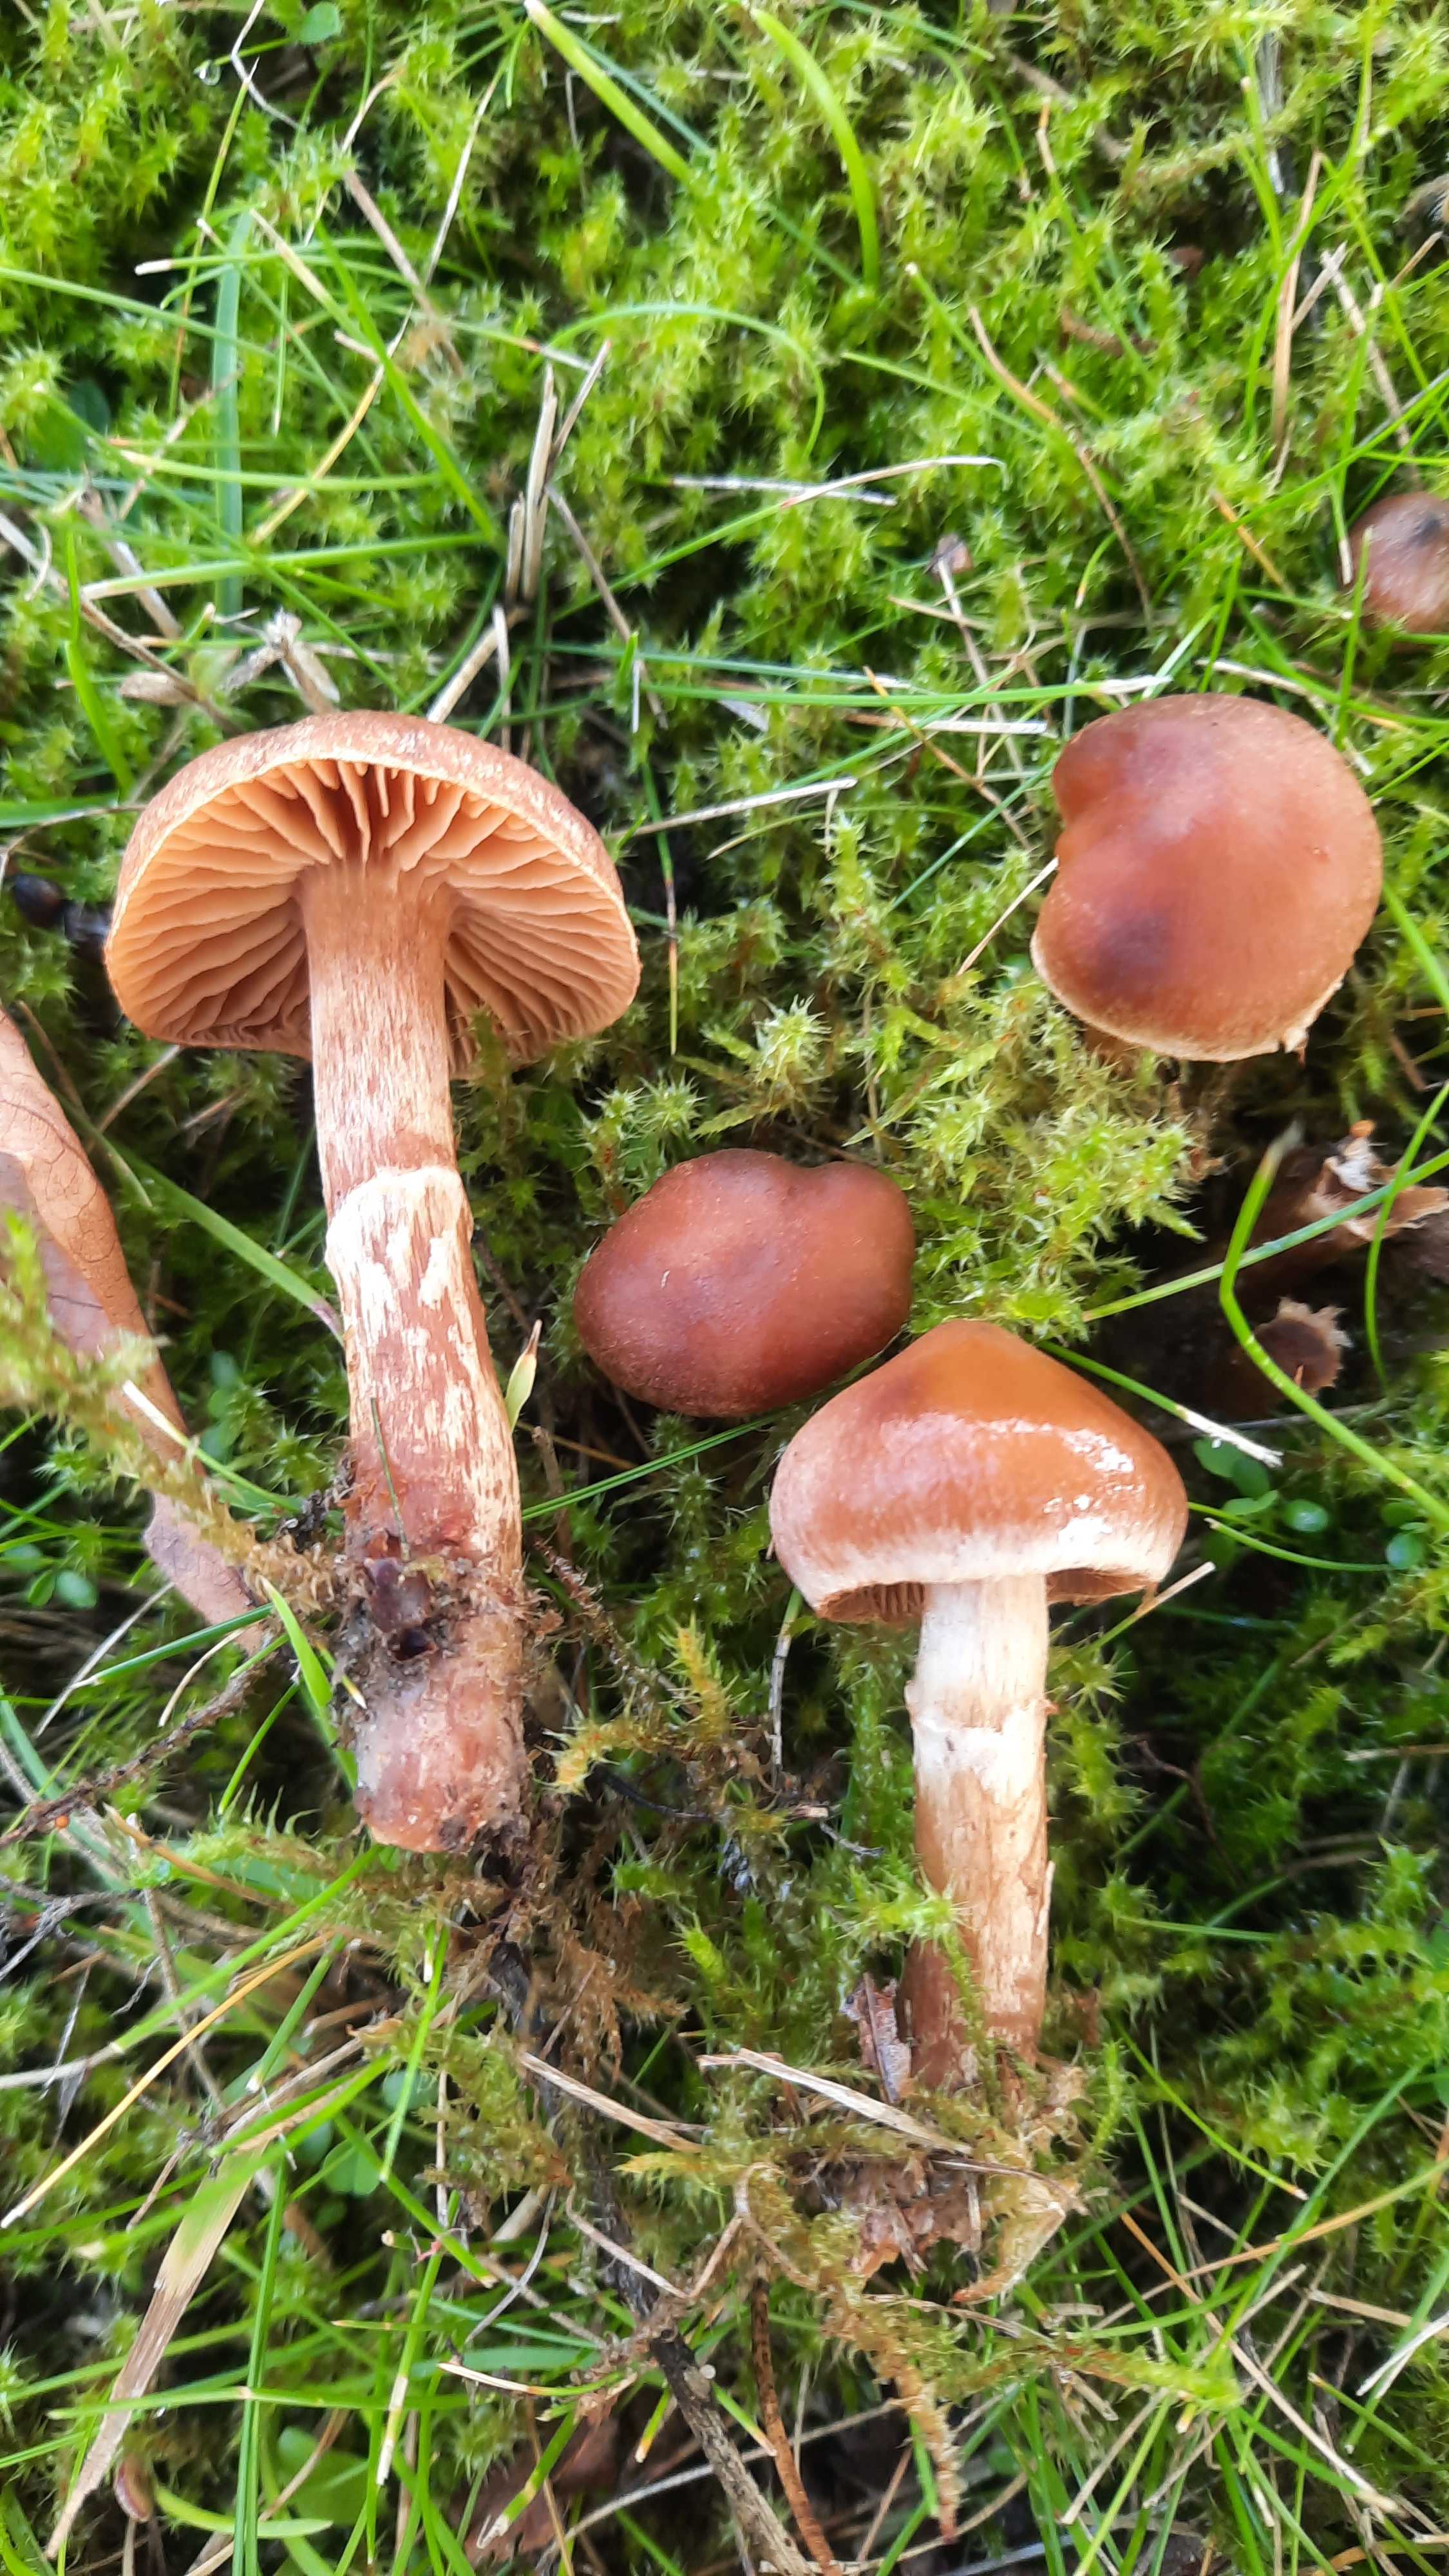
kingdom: Fungi
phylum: Basidiomycota
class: Agaricomycetes
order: Agaricales
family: Cortinariaceae
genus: Cortinarius
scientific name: Cortinarius
